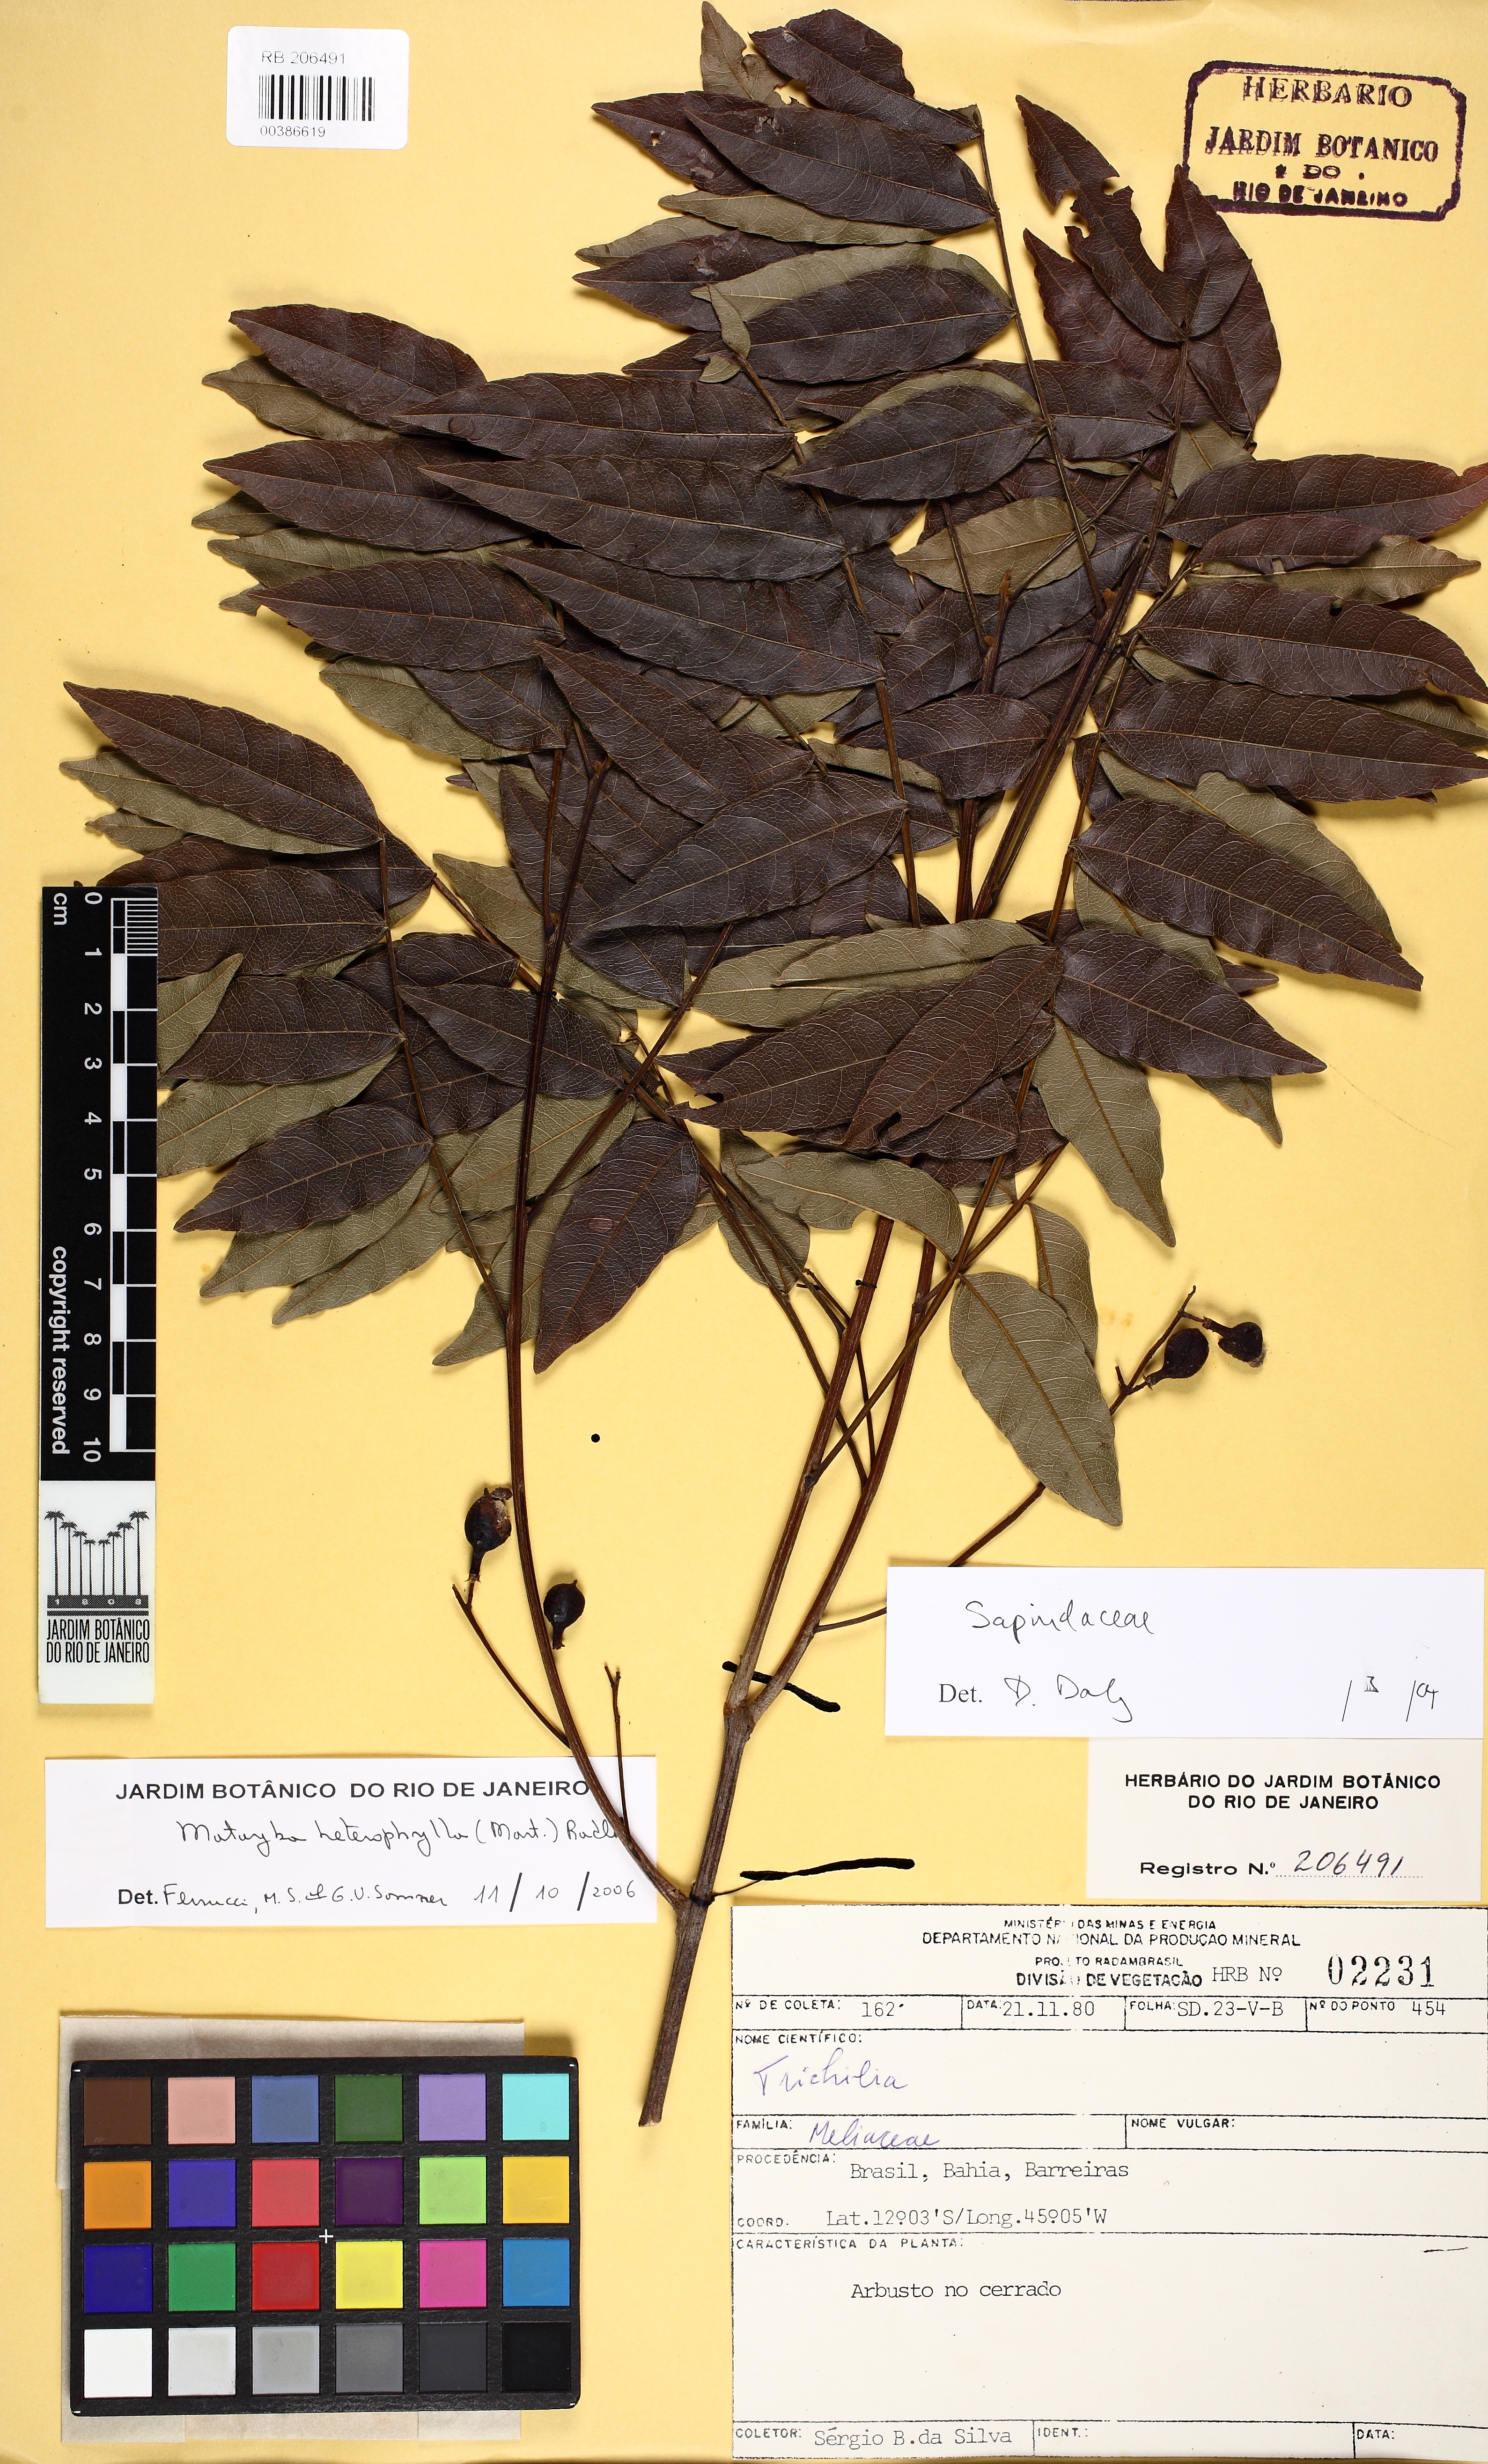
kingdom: Plantae
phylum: Tracheophyta
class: Magnoliopsida
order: Sapindales
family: Sapindaceae
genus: Matayba
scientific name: Matayba heterophylla
